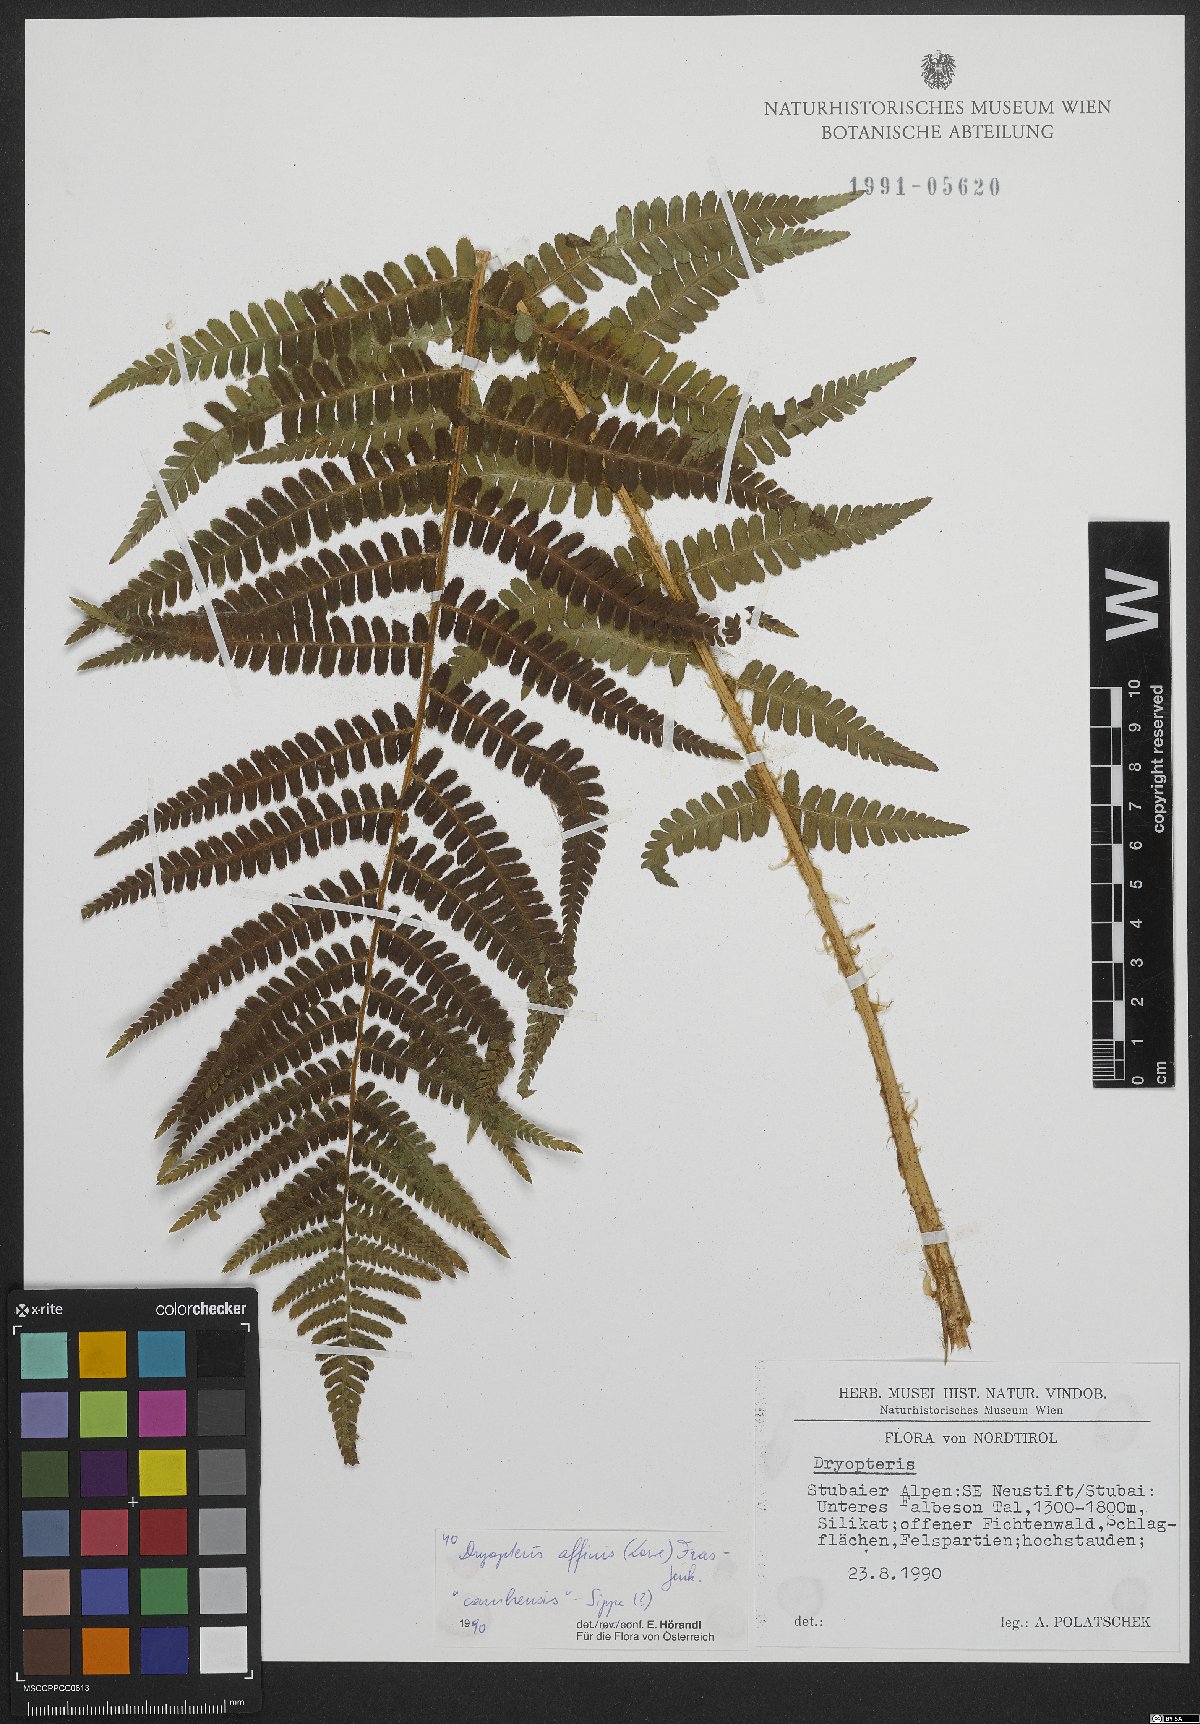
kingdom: Plantae
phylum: Tracheophyta
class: Polypodiopsida
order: Polypodiales
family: Dryopteridaceae
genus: Dryopteris
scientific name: Dryopteris filix-mas
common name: Male fern
